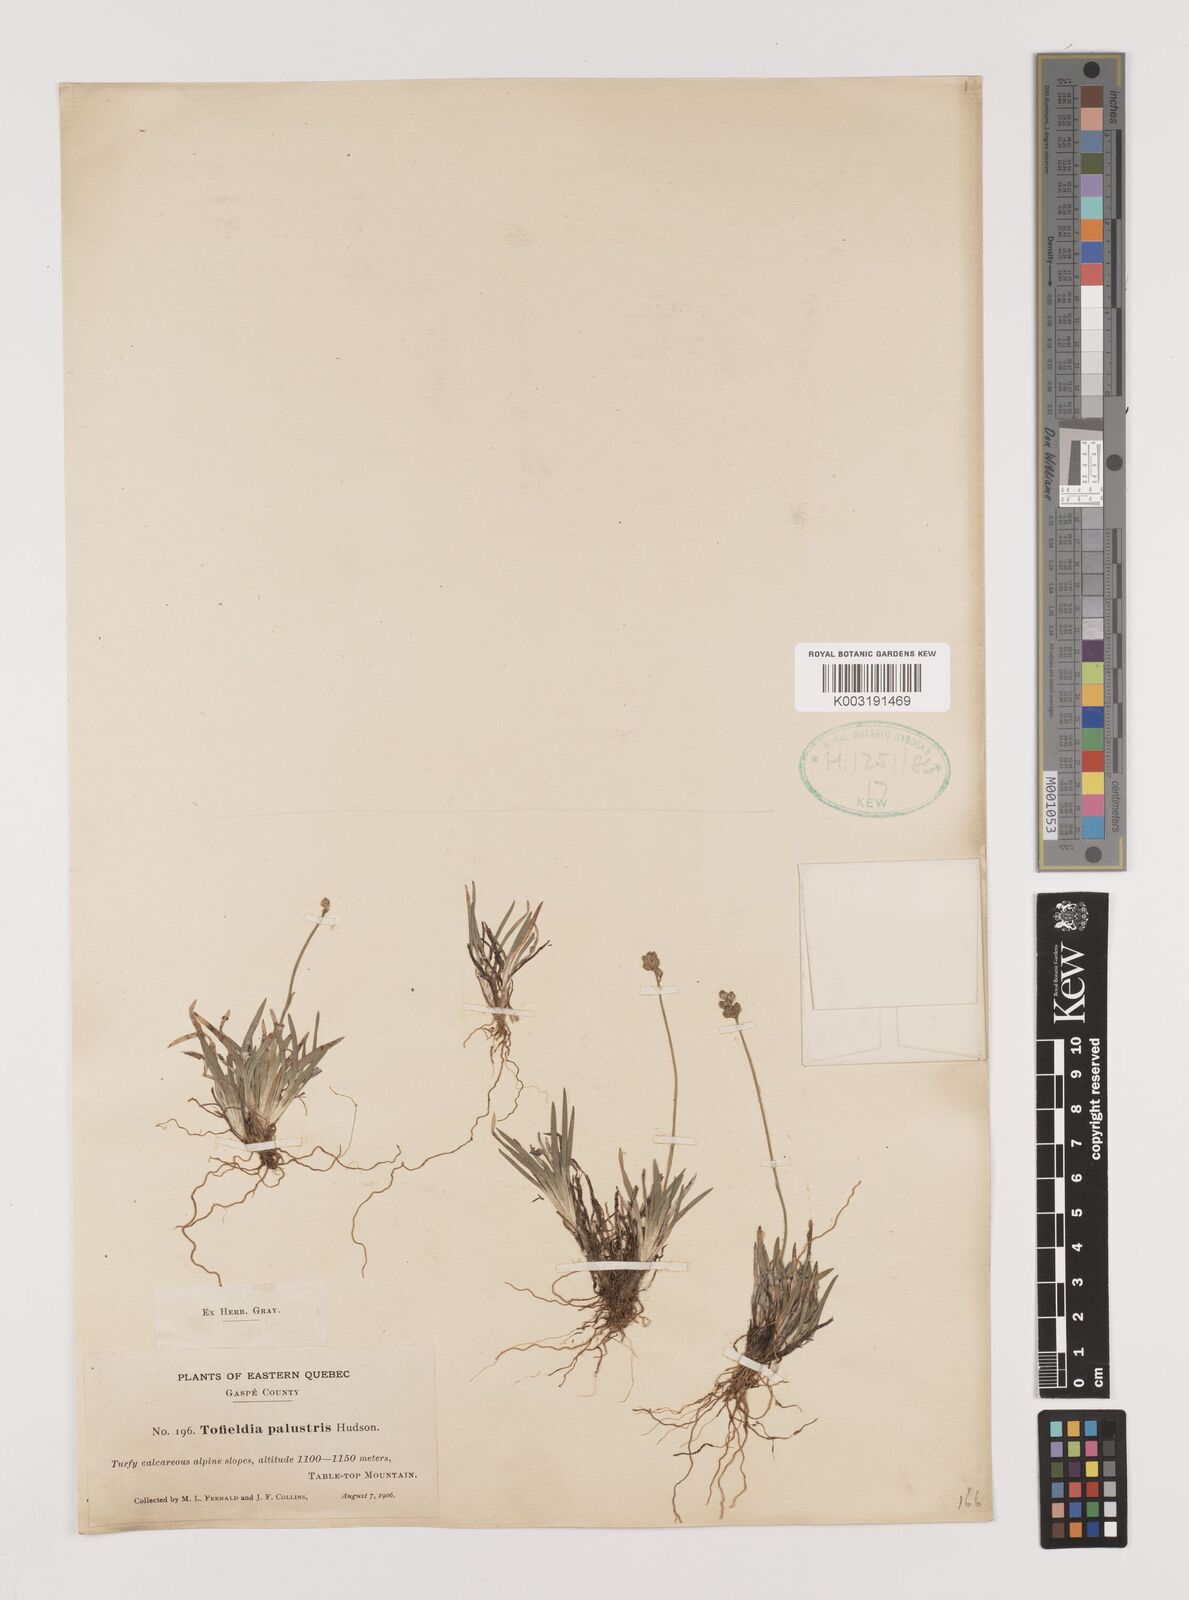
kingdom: Plantae
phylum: Tracheophyta
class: Liliopsida
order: Alismatales
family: Tofieldiaceae
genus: Tofieldia
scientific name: Tofieldia calyculata
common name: German-asphodel
